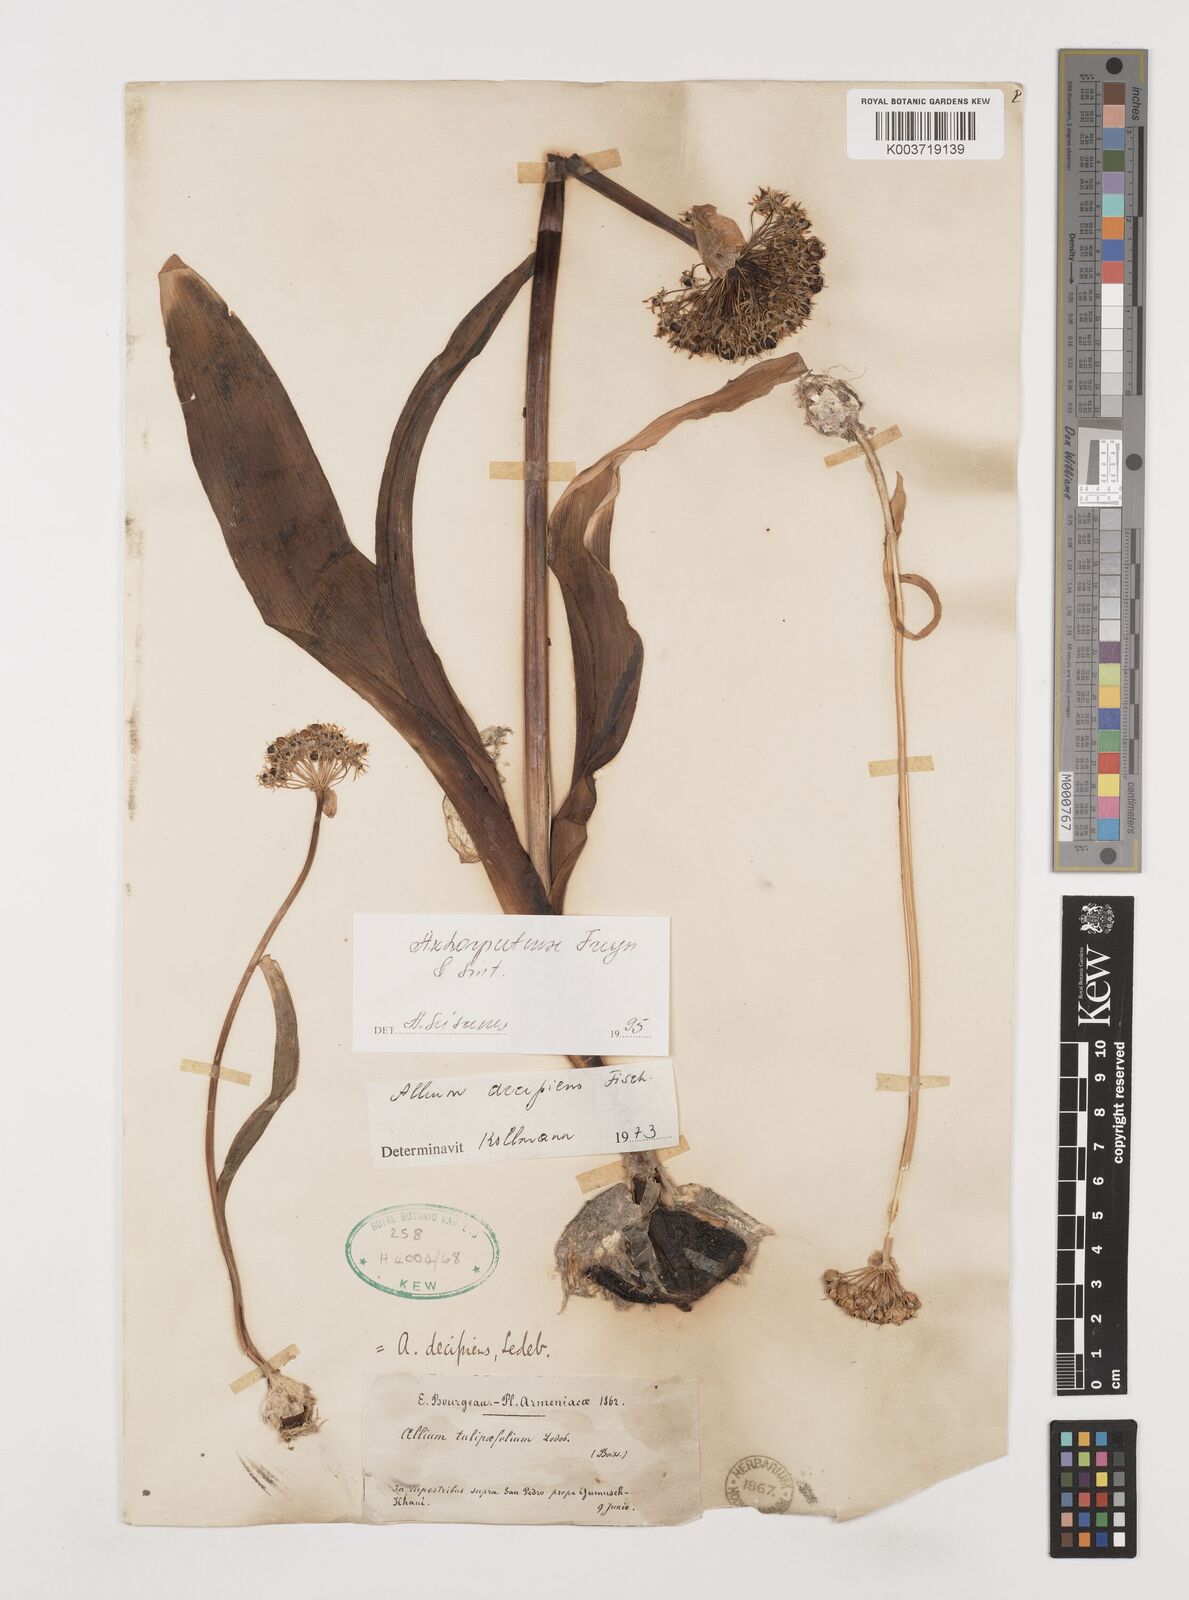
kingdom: Plantae
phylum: Tracheophyta
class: Liliopsida
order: Asparagales
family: Amaryllidaceae
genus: Allium
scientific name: Allium kharputense
